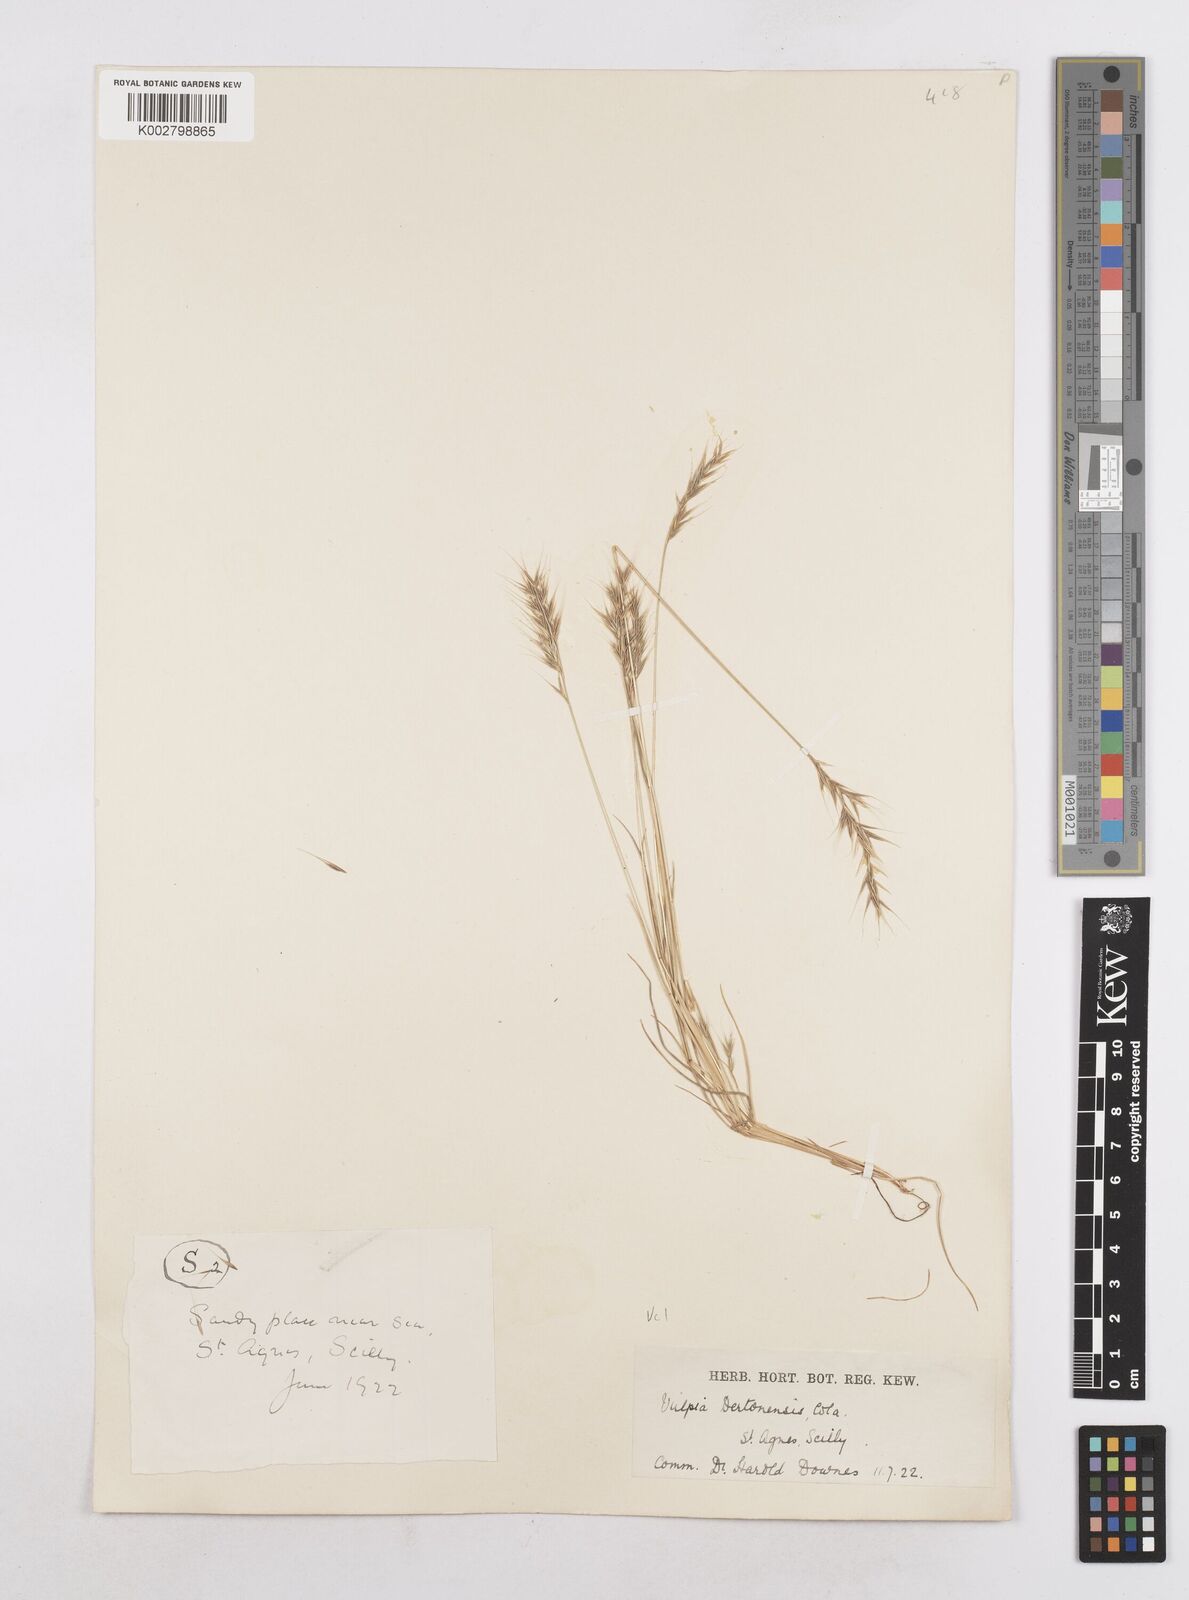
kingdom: Plantae
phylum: Tracheophyta
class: Liliopsida
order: Poales
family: Poaceae
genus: Festuca
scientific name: Festuca bromoides
